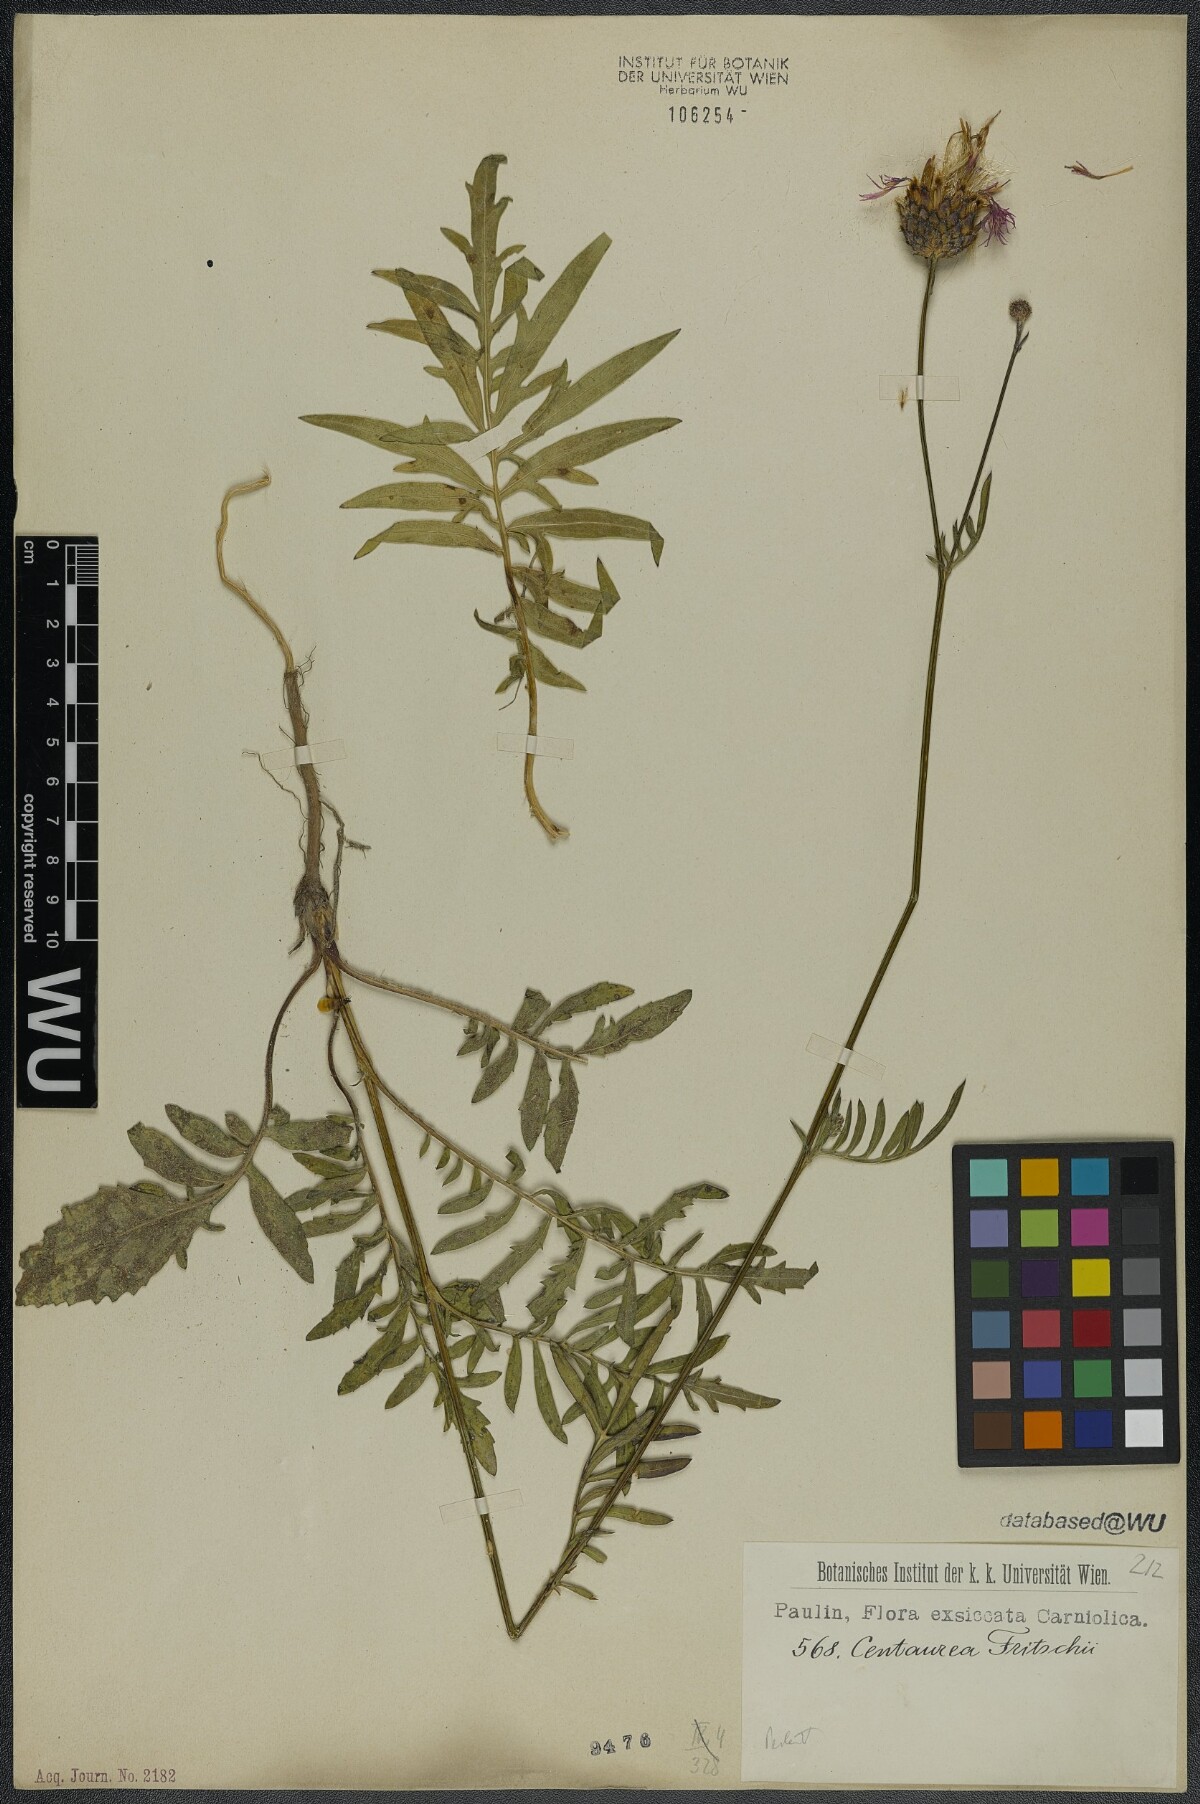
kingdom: Plantae
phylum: Tracheophyta
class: Magnoliopsida
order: Asterales
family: Asteraceae
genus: Centaurea
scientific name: Centaurea scabiosa
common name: Greater knapweed
